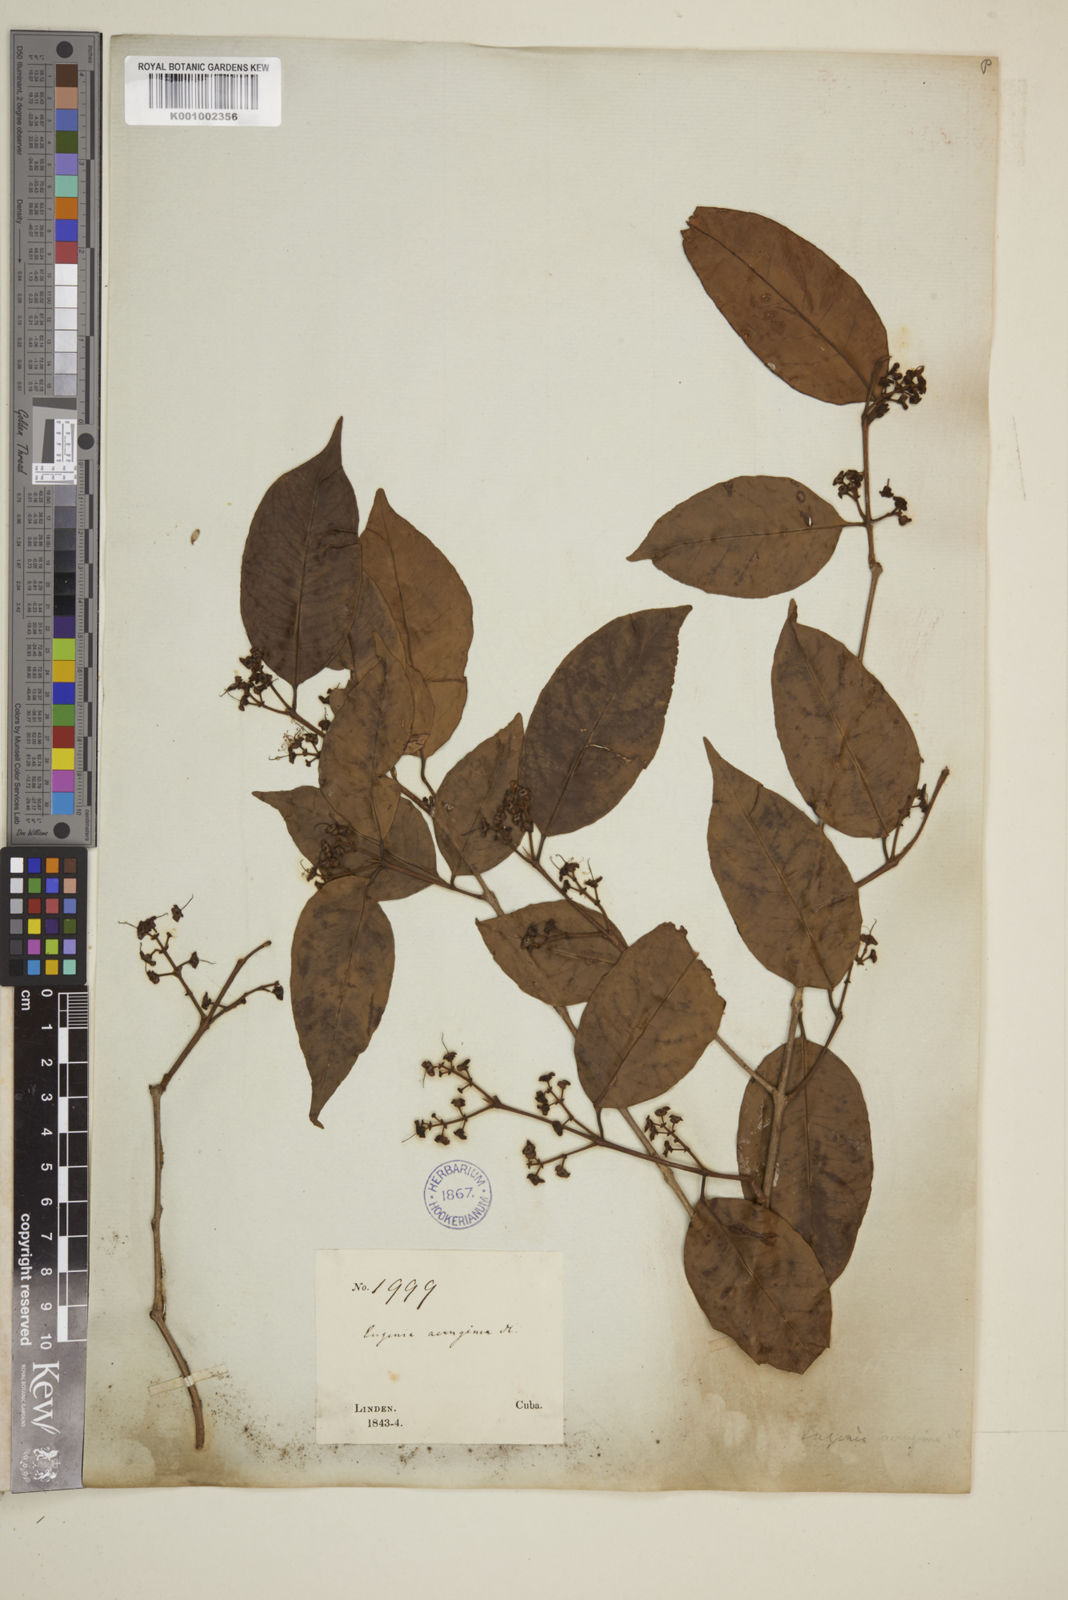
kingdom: Plantae
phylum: Tracheophyta
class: Magnoliopsida
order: Myrtales
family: Myrtaceae
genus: Eugenia
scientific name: Eugenia domingensis
